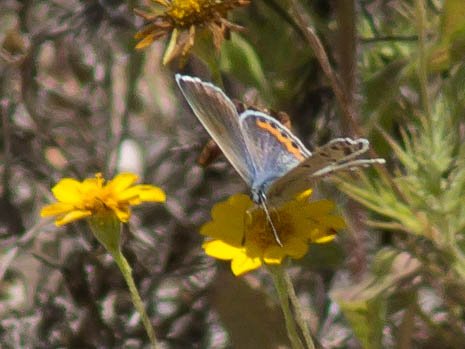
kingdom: Animalia
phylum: Arthropoda
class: Insecta
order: Lepidoptera
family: Lycaenidae
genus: Plebejus
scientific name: Plebejus
